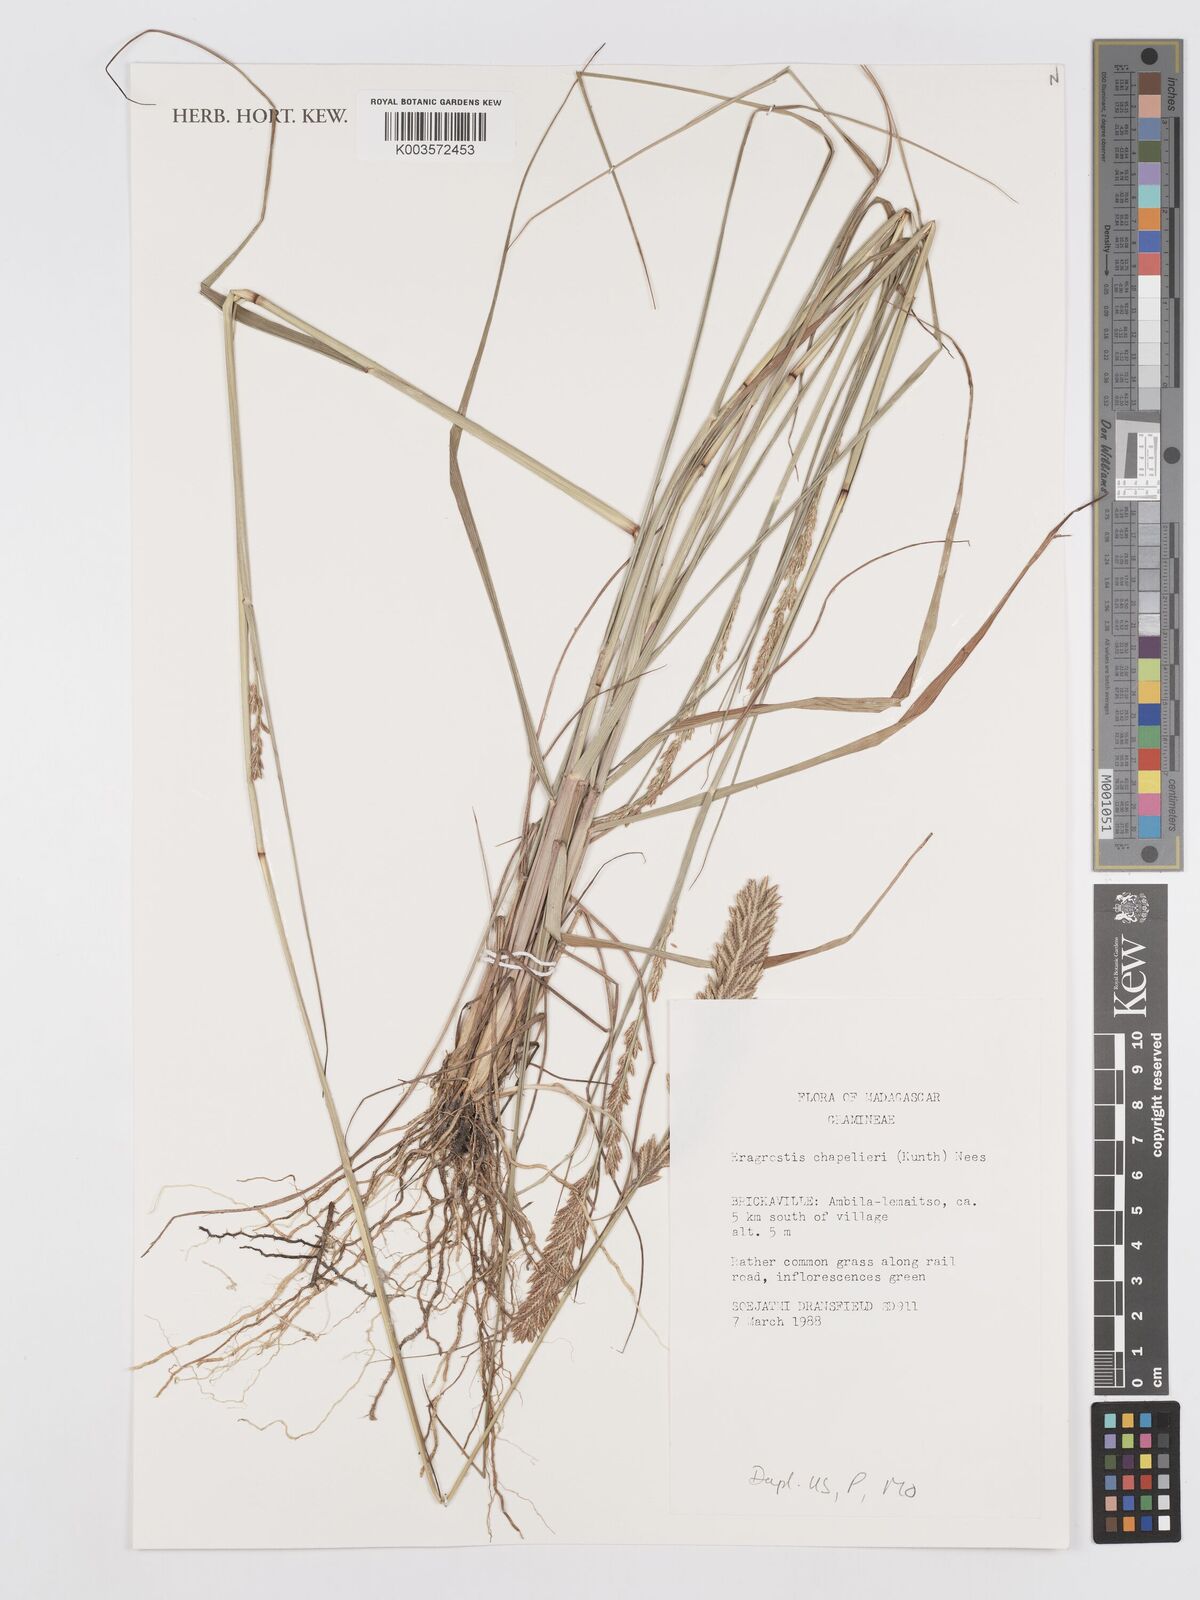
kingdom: Plantae
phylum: Tracheophyta
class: Liliopsida
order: Poales
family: Poaceae
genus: Eragrostis
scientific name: Eragrostis chapelieri
